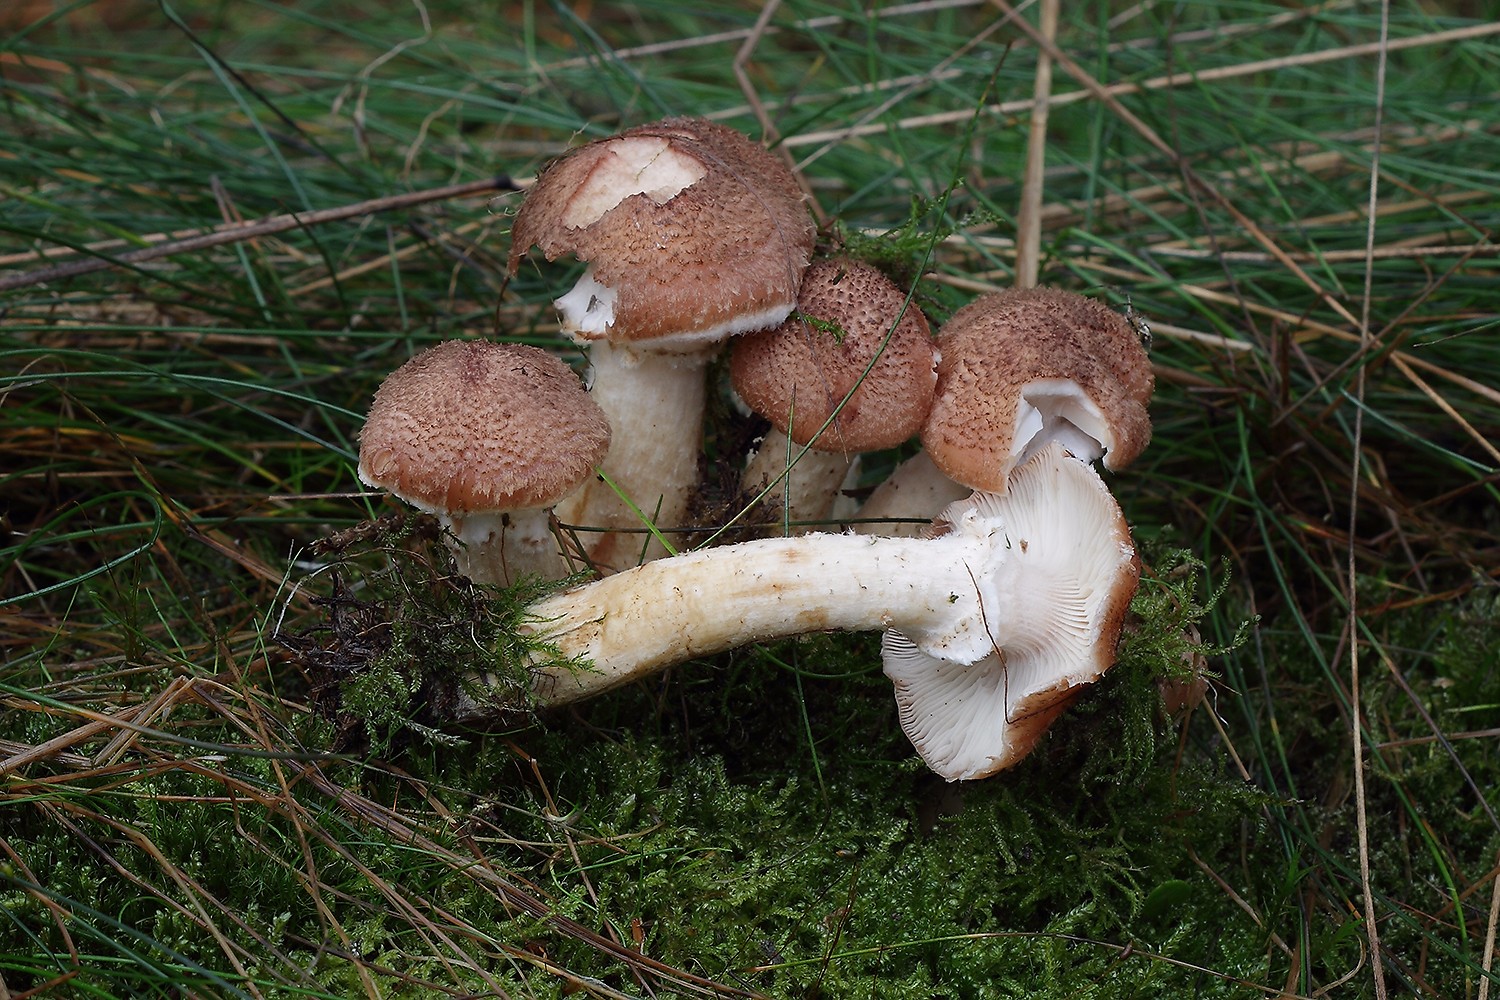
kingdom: Fungi
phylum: Basidiomycota
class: Agaricomycetes
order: Agaricales
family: Physalacriaceae
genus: Armillaria
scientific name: Armillaria ostoyae
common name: mørk honningsvamp
